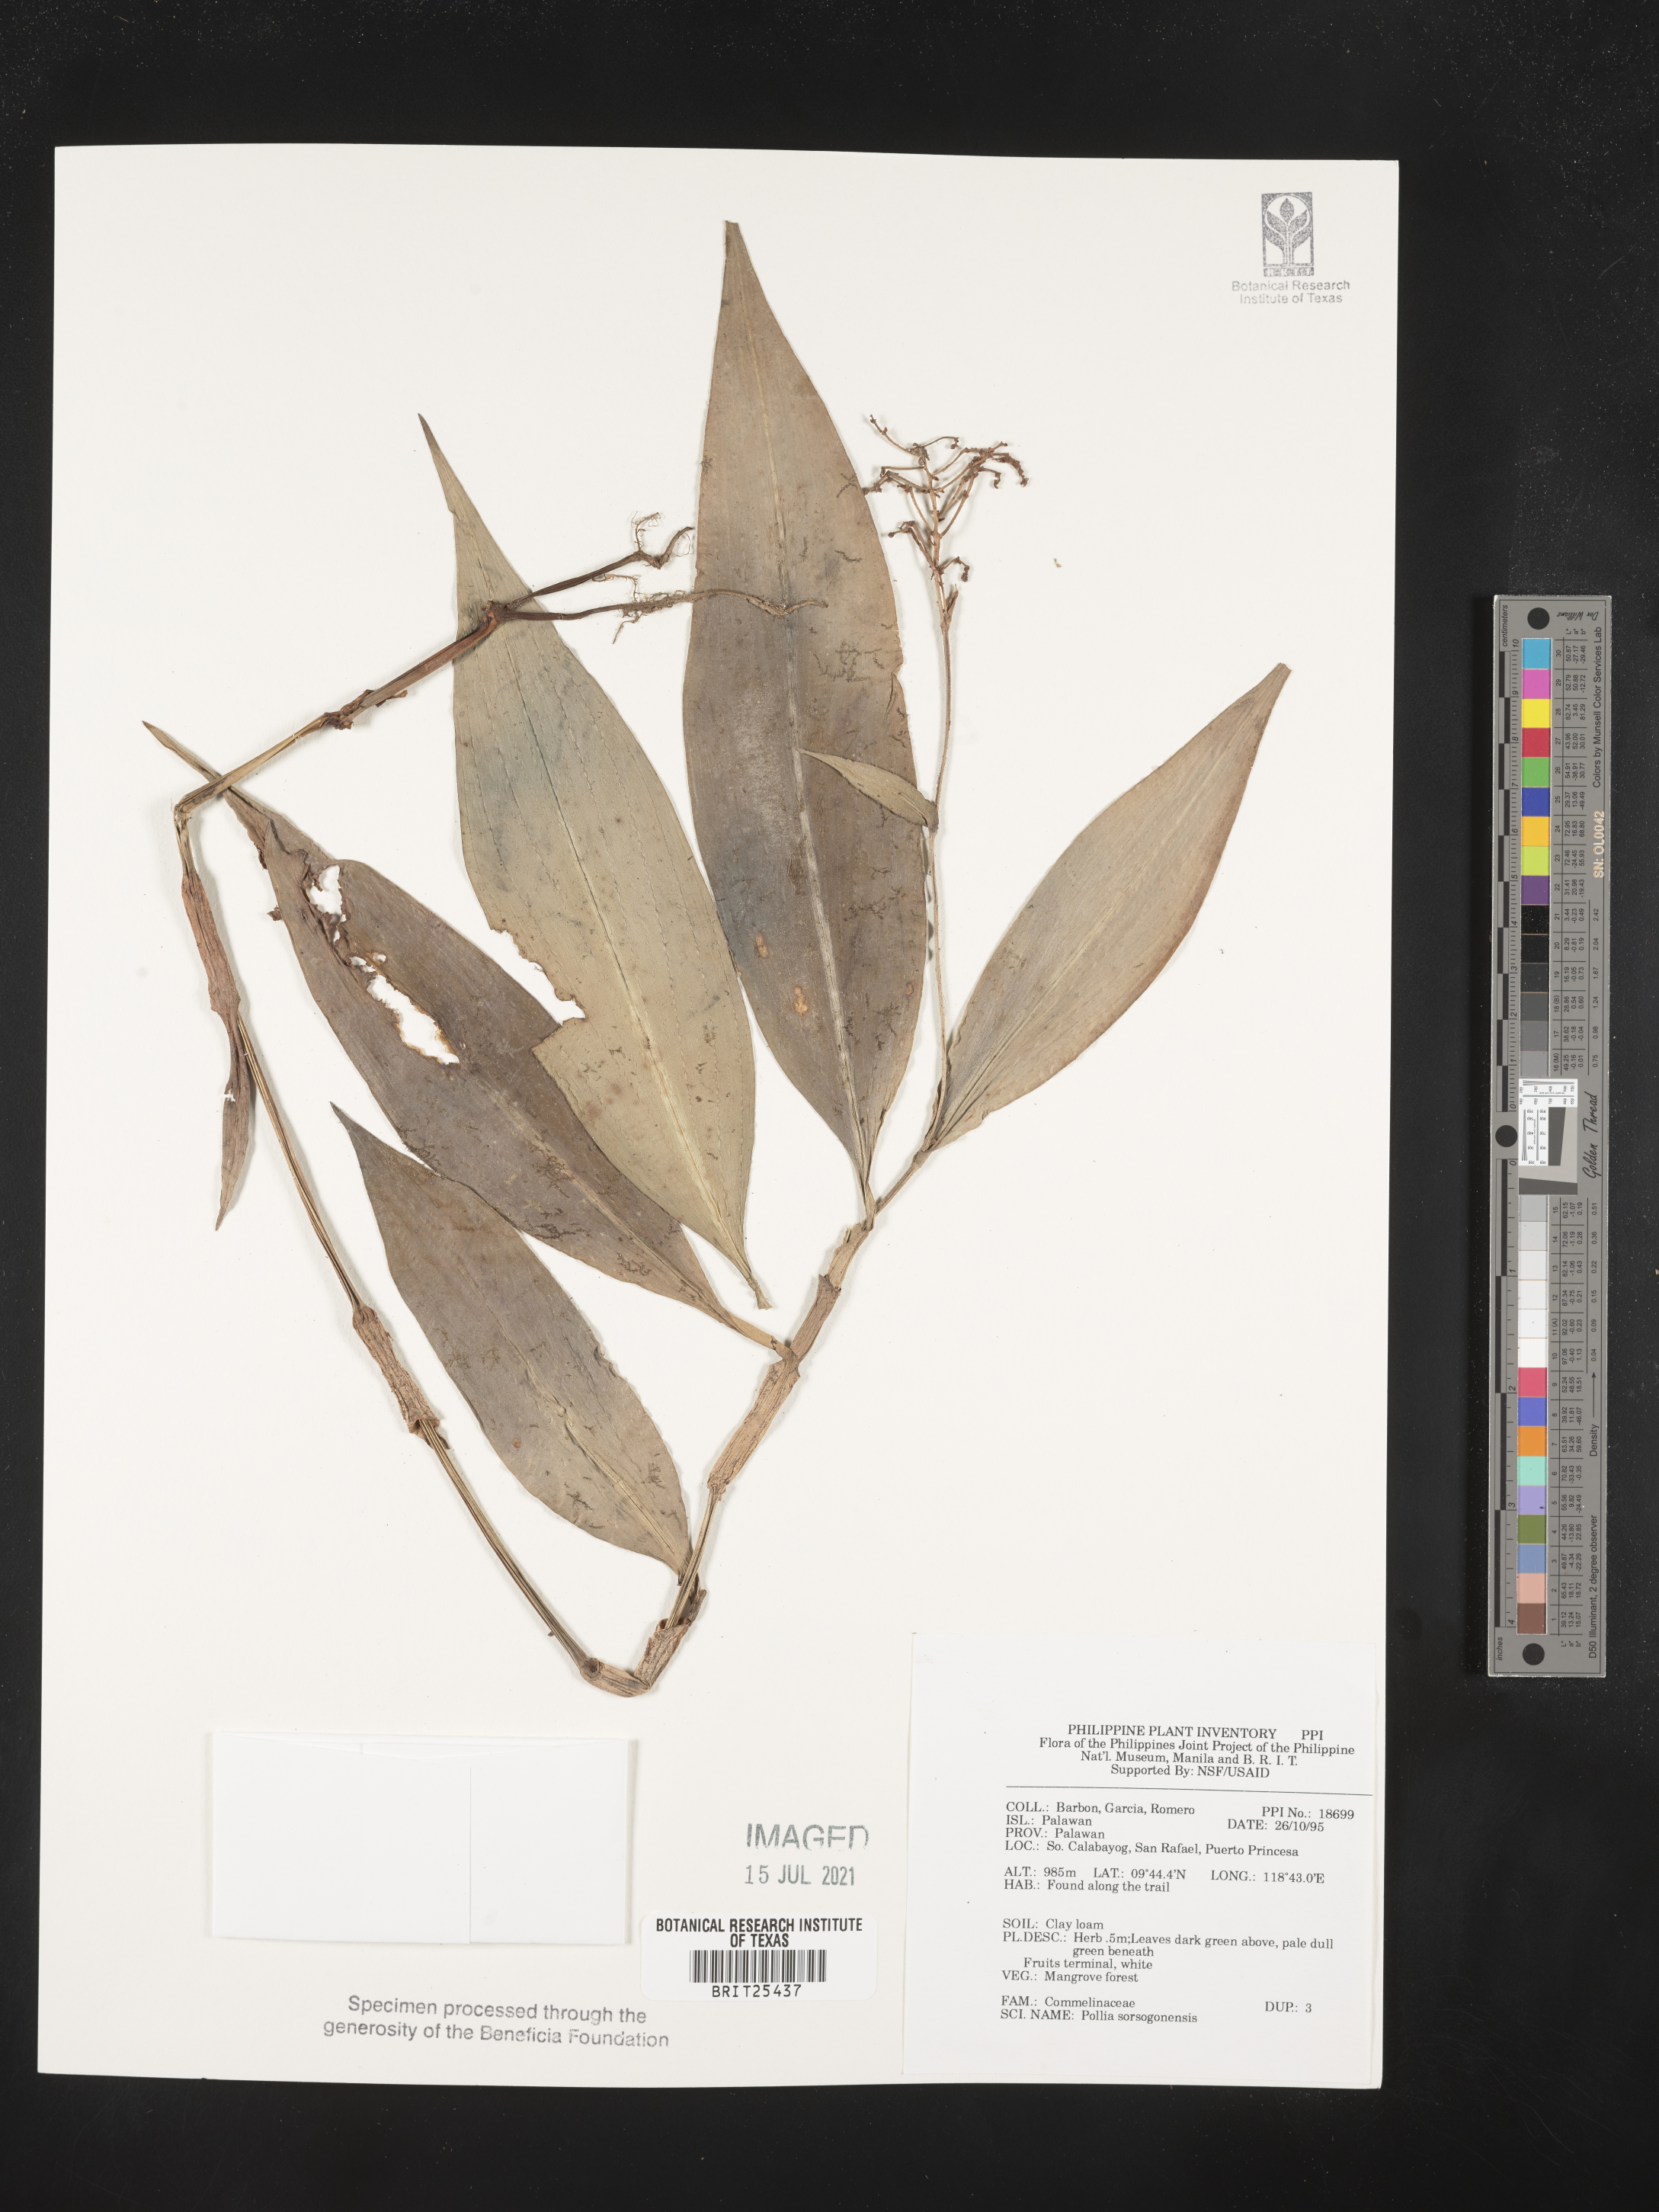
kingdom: Plantae
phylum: Tracheophyta
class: Liliopsida
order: Commelinales
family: Commelinaceae
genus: Pollia
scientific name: Pollia secundiflora
